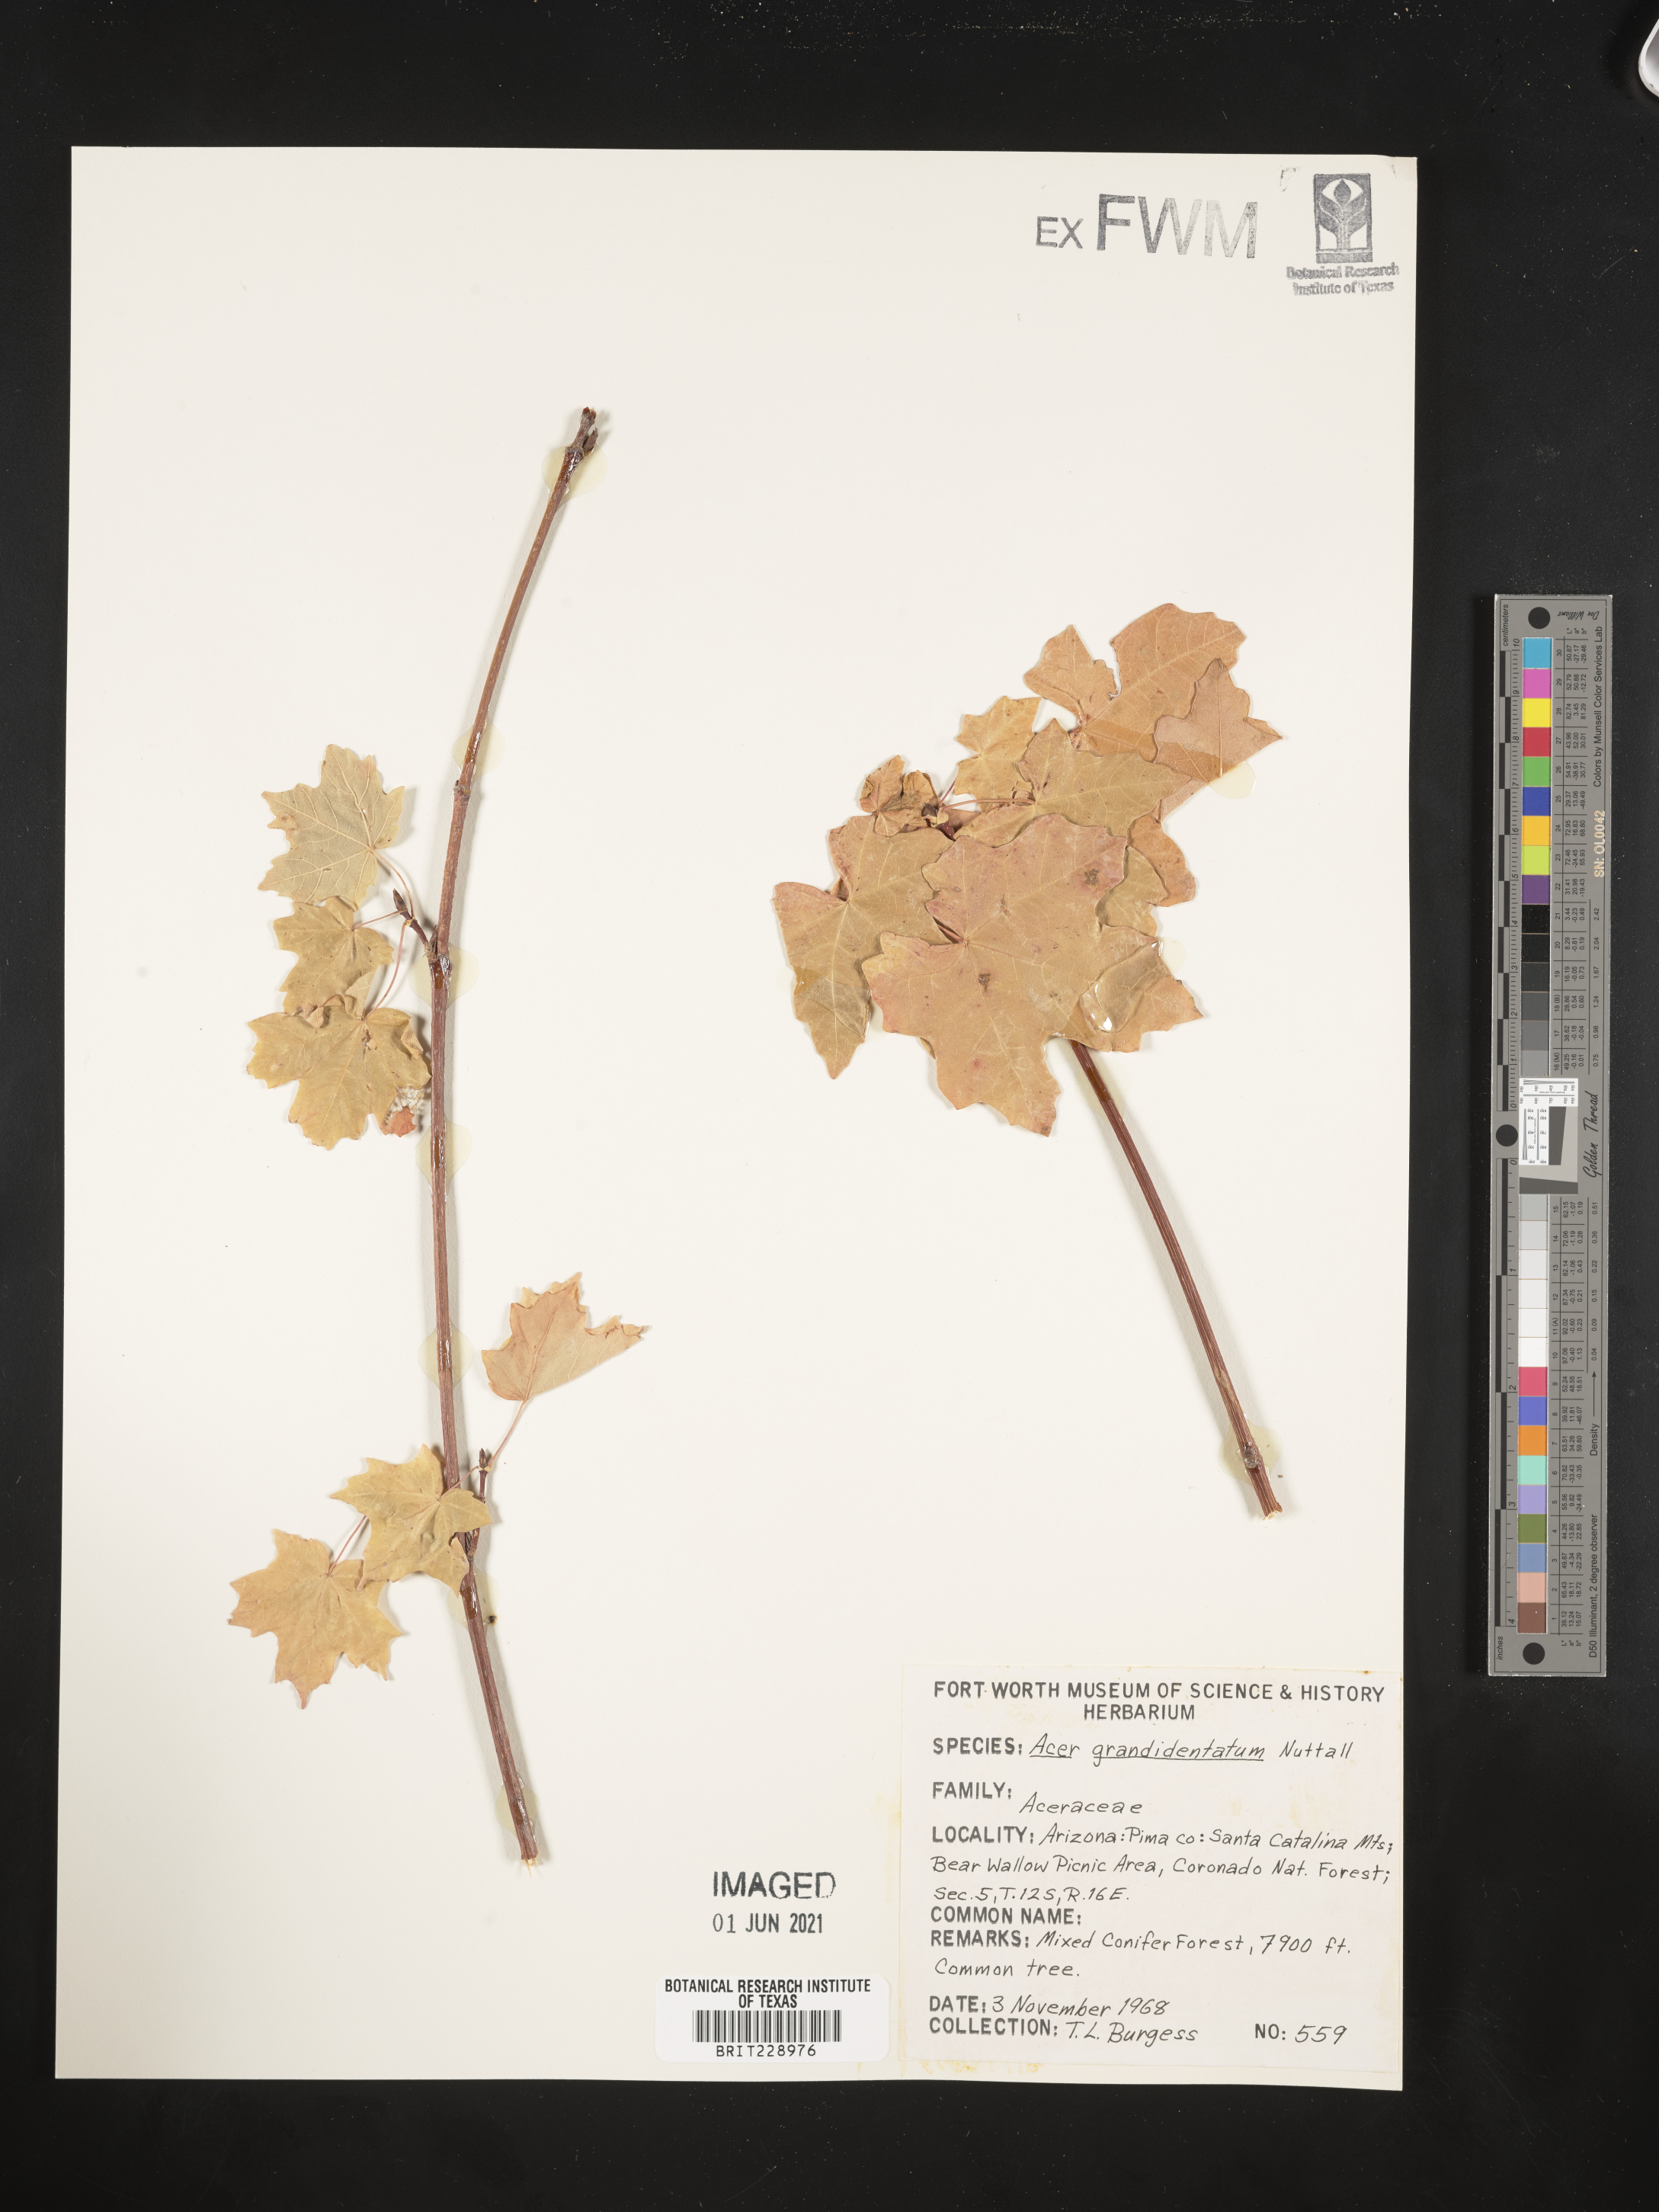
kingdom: Plantae
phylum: Tracheophyta
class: Magnoliopsida
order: Sapindales
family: Sapindaceae
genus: Acer
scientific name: Acer grandidentatum
